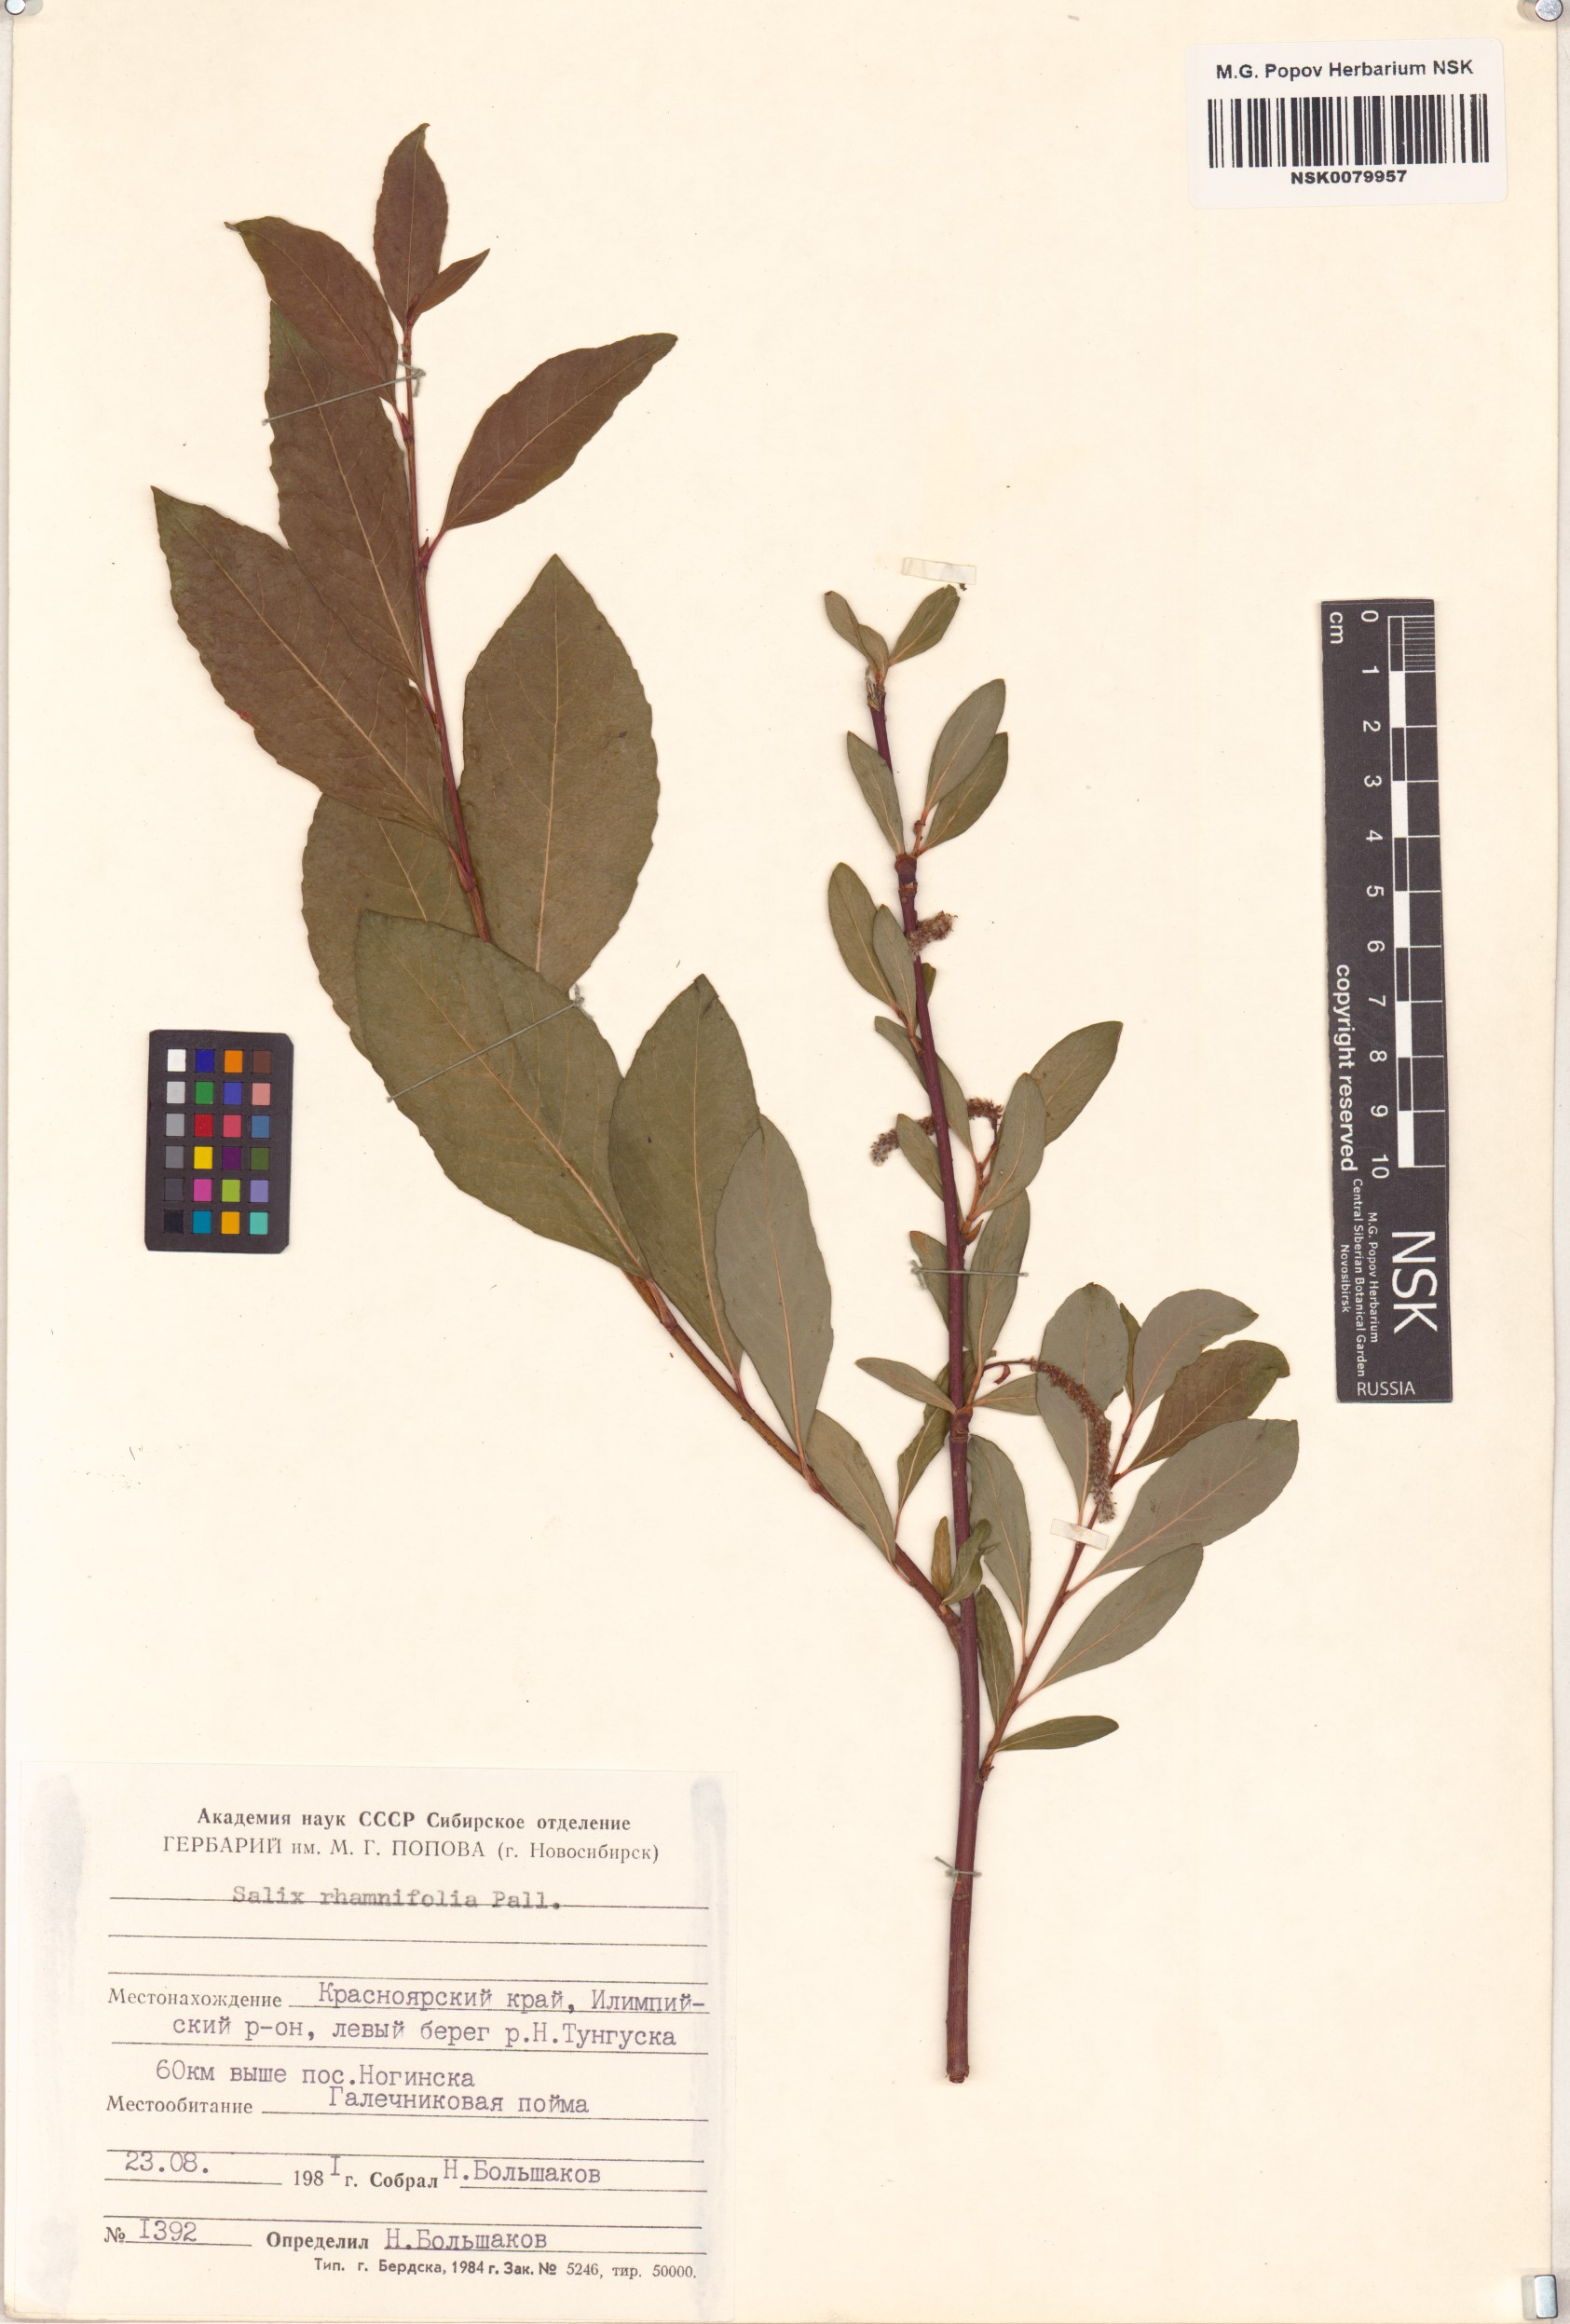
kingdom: Plantae
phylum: Tracheophyta
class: Magnoliopsida
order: Malpighiales
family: Salicaceae
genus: Salix
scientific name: Salix rhamnifolia
